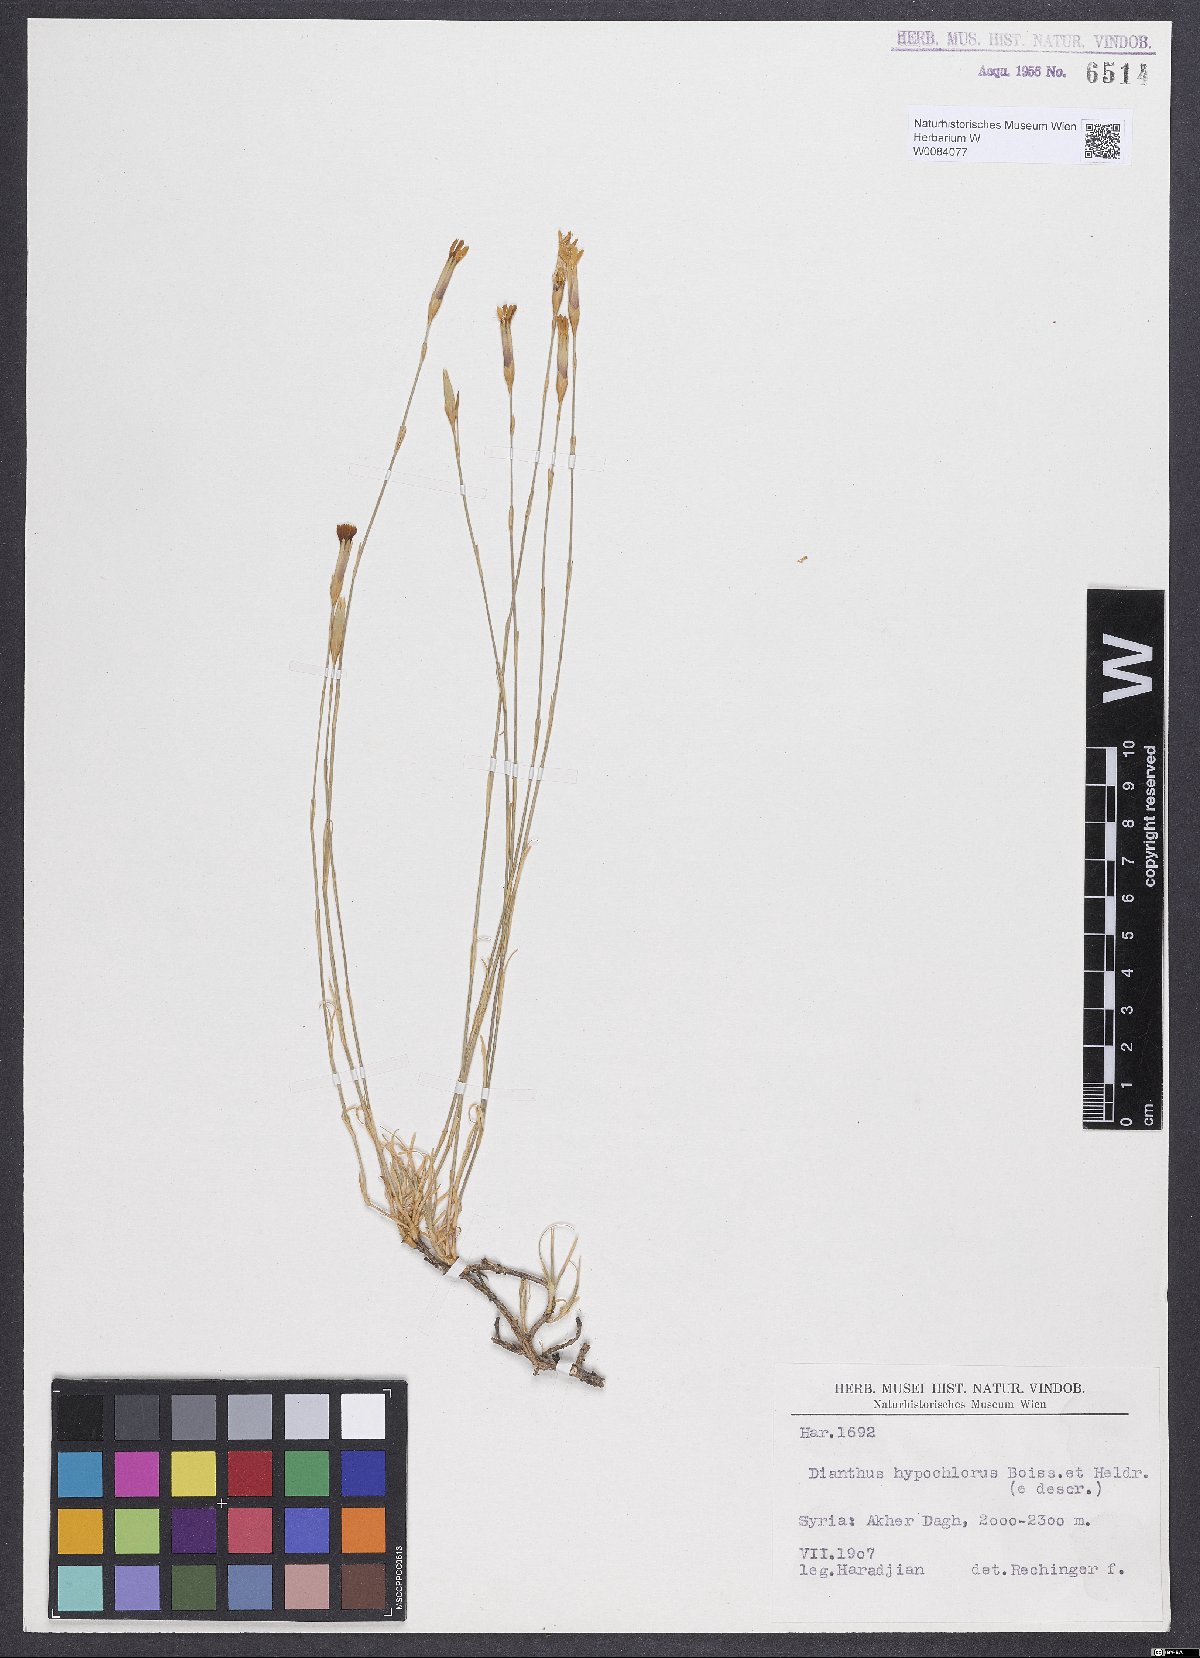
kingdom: Plantae
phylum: Tracheophyta
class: Magnoliopsida
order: Caryophyllales
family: Caryophyllaceae
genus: Dianthus
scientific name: Dianthus zonatus
